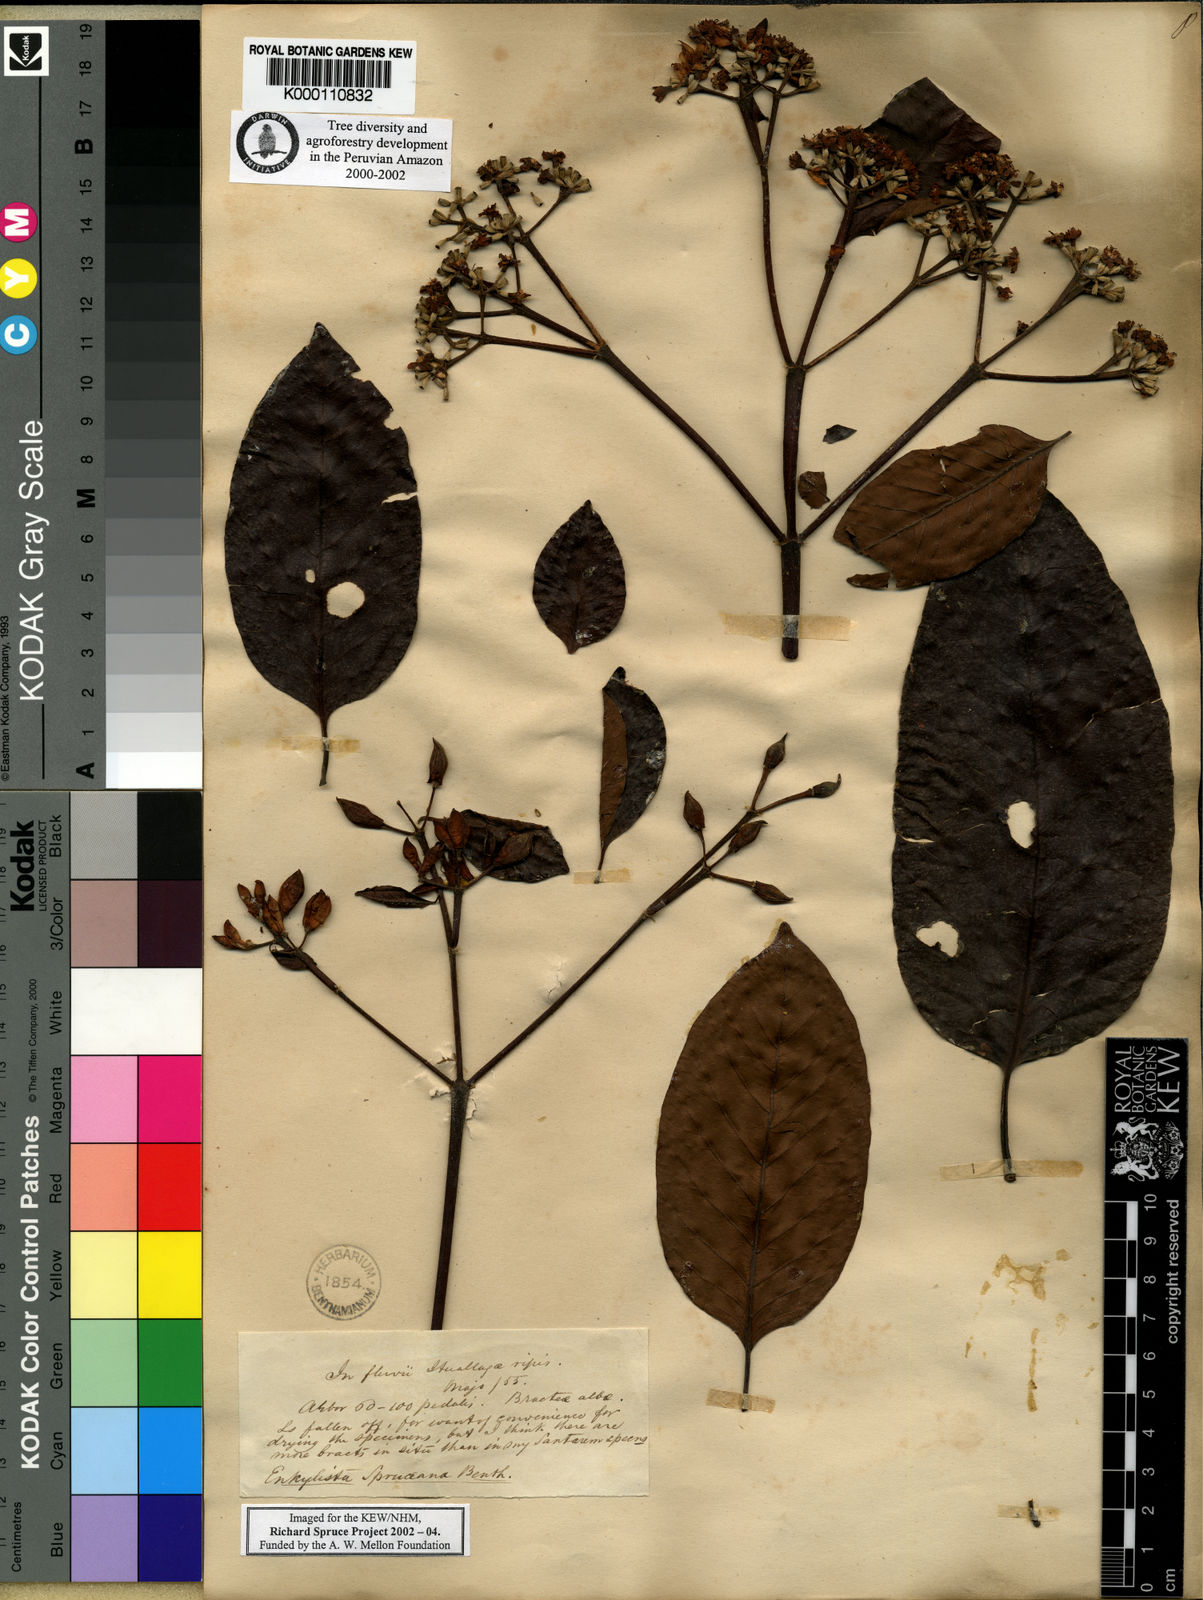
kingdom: Plantae
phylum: Tracheophyta
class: Magnoliopsida
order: Gentianales
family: Rubiaceae
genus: Calycophyllum
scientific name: Calycophyllum spruceanum
